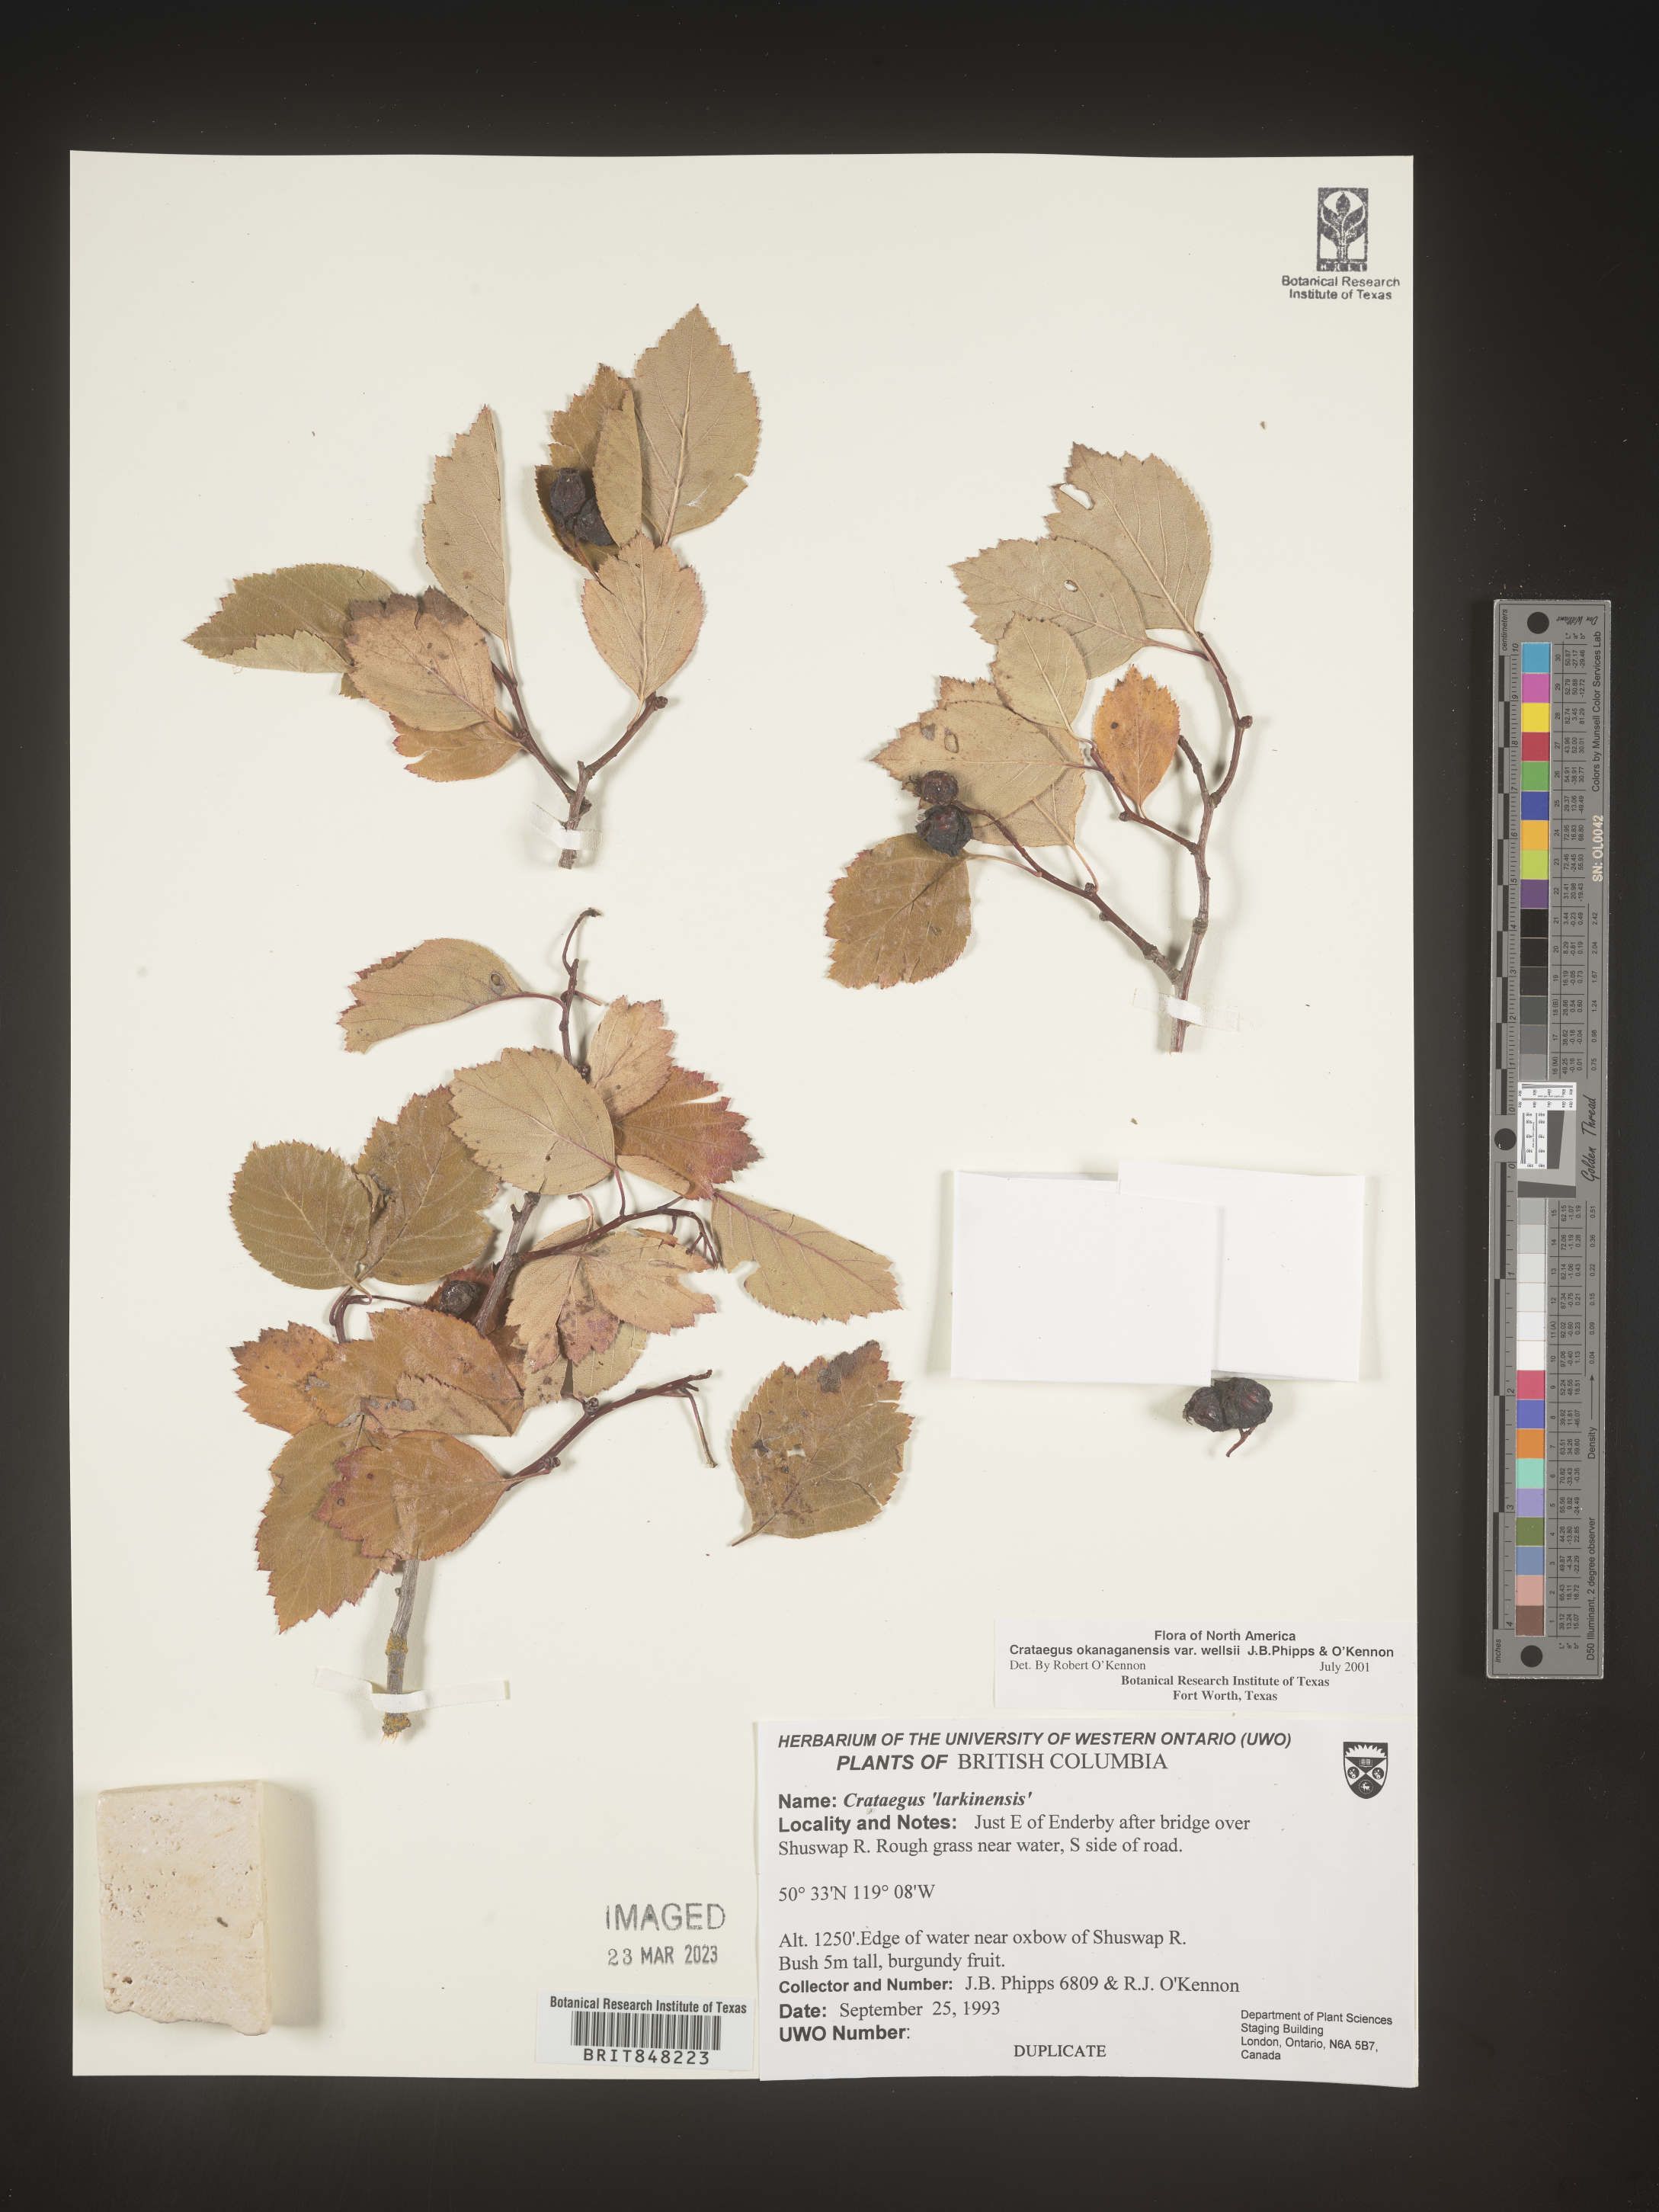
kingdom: Plantae
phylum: Tracheophyta
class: Magnoliopsida
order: Rosales
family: Rosaceae
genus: Crataegus
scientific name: Crataegus okanaganensis
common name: Okanagan valley hawthorn
